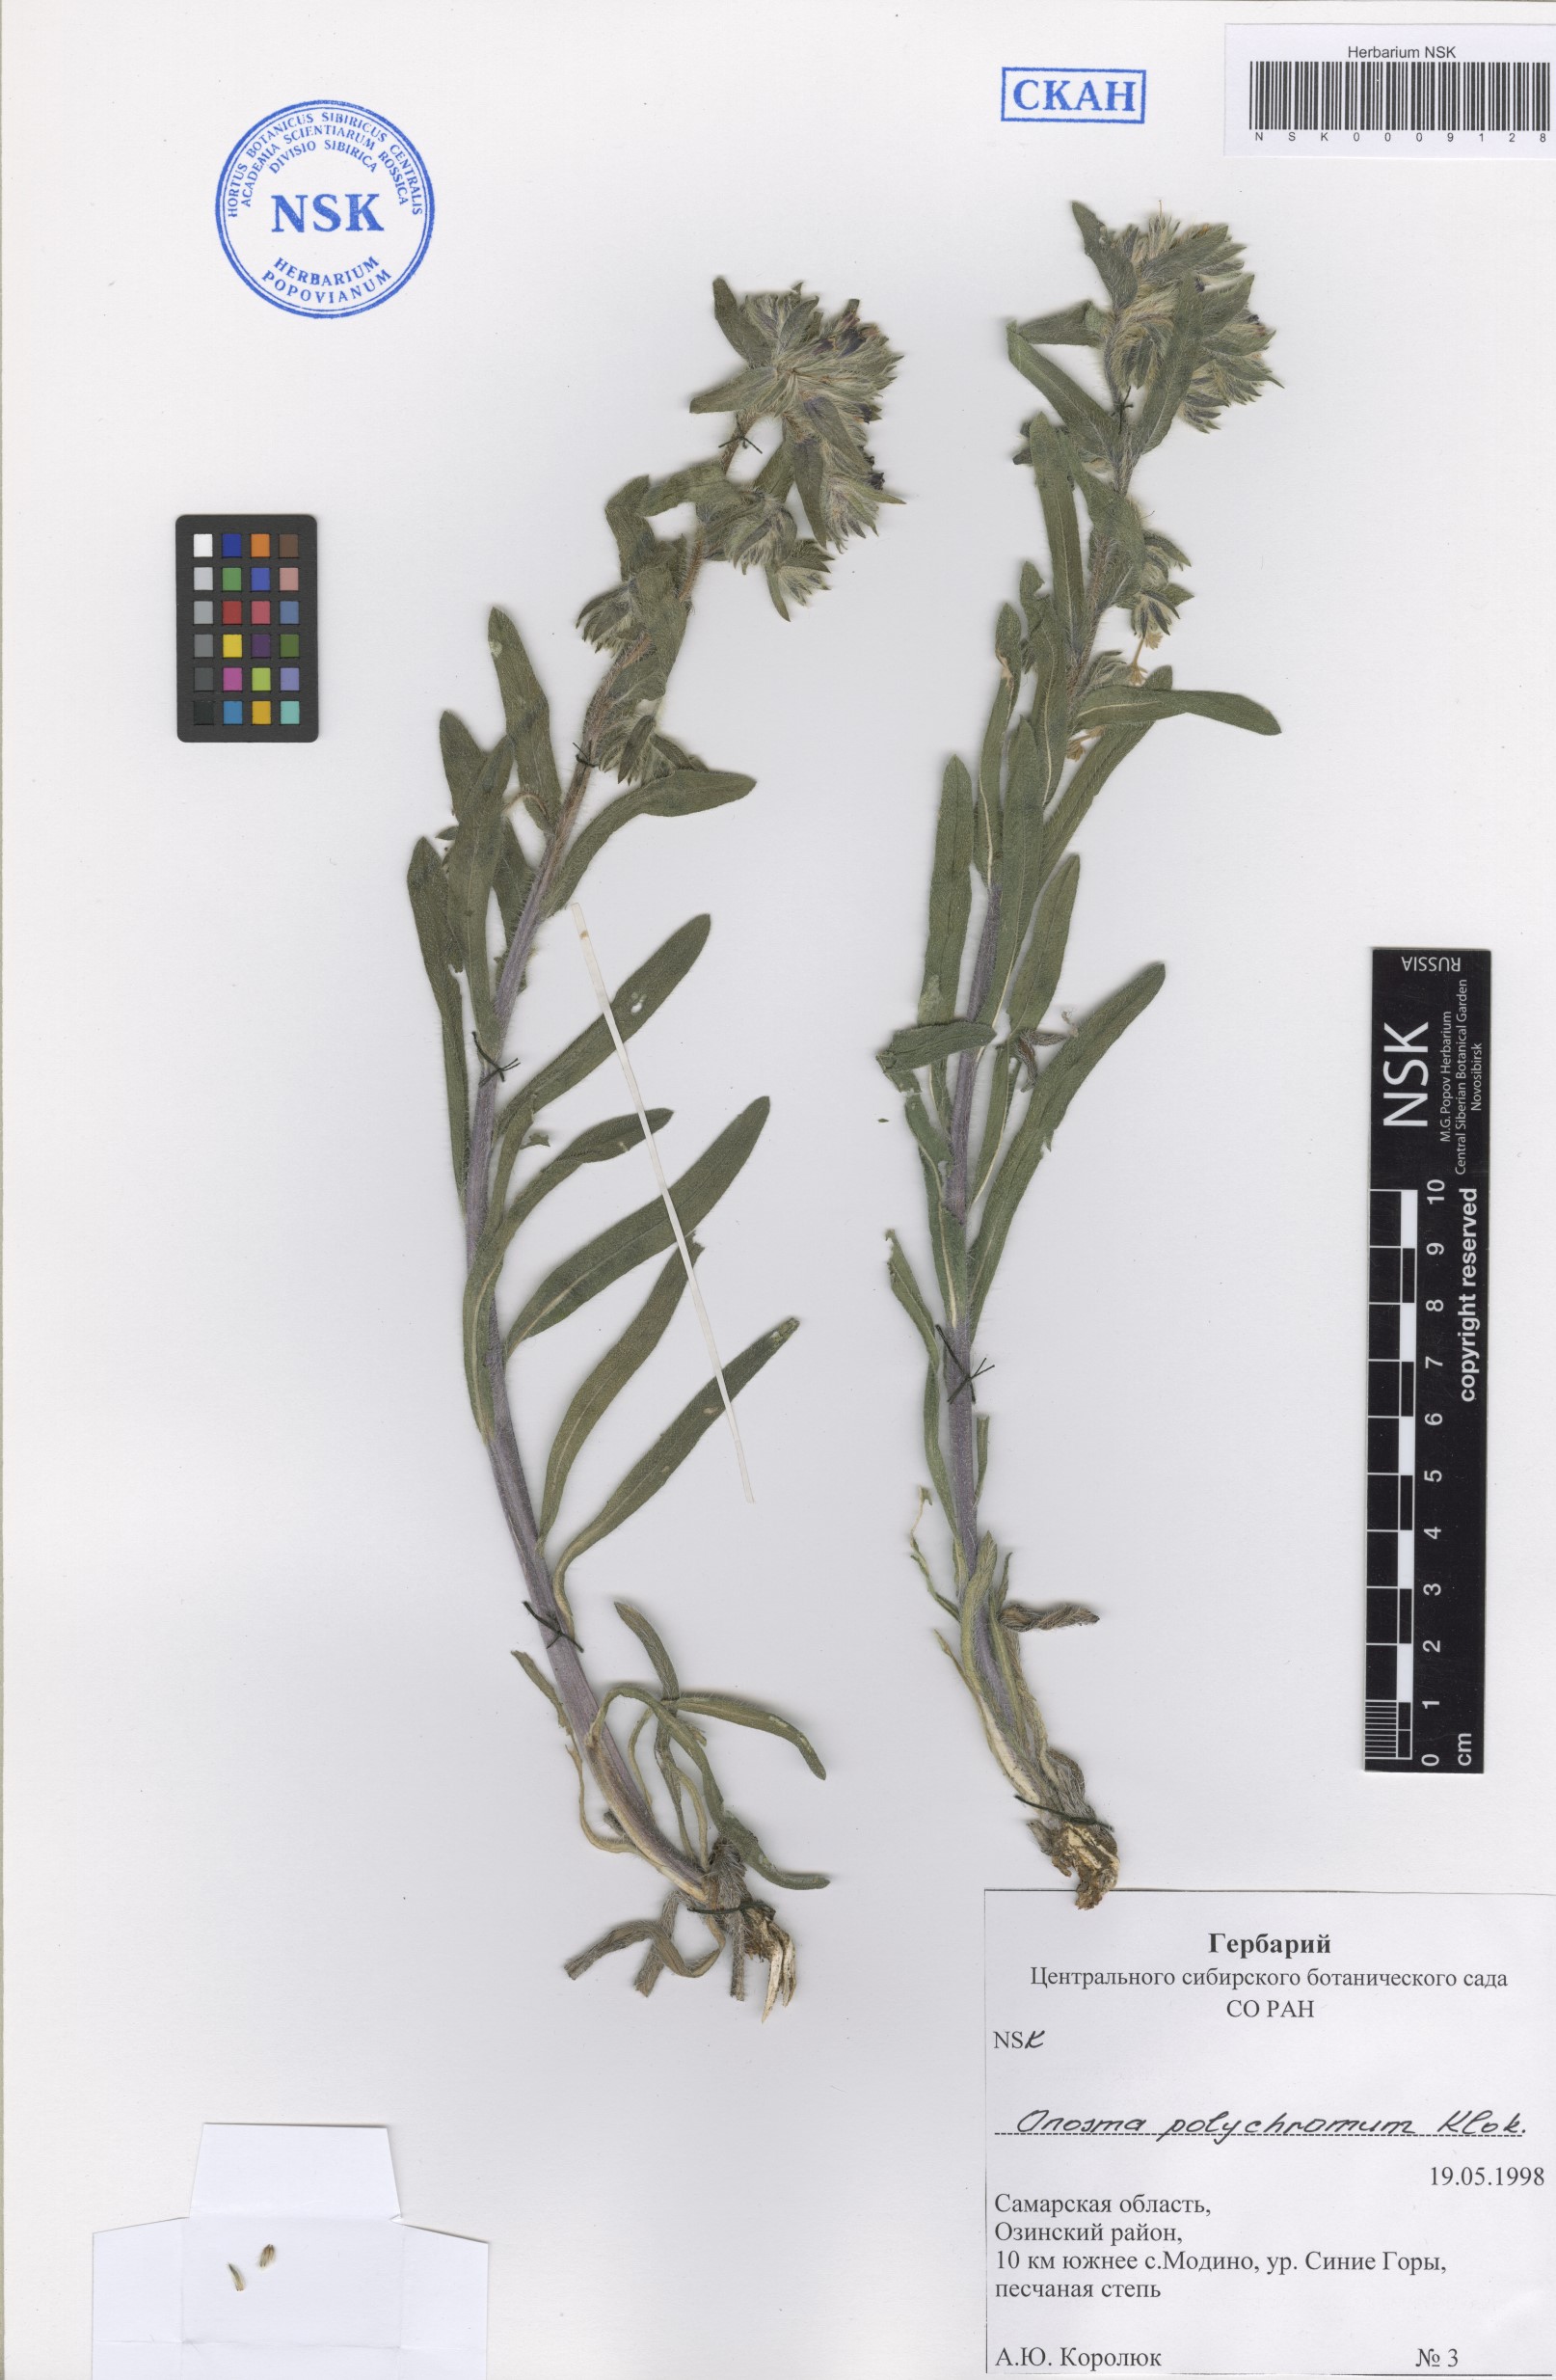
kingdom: Plantae
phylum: Tracheophyta
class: Magnoliopsida
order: Boraginales
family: Boraginaceae
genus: Onosma
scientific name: Onosma polychroma
